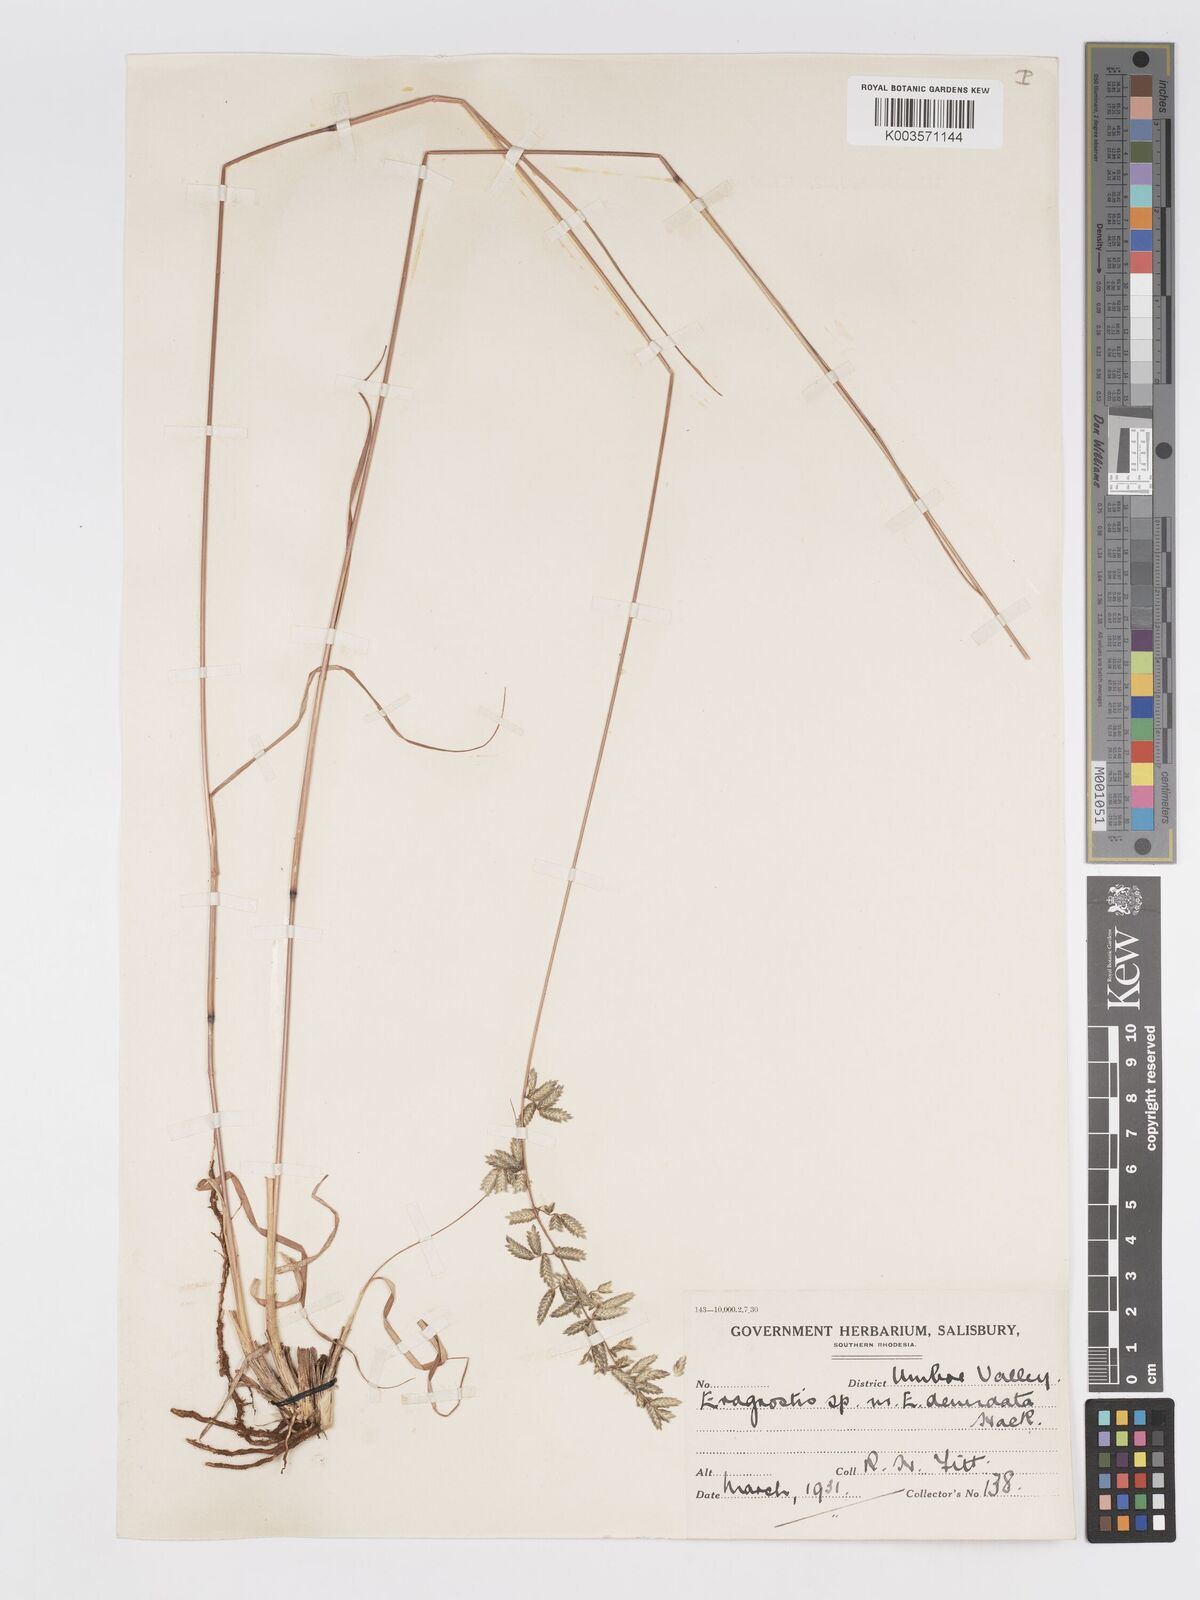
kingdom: Plantae
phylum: Tracheophyta
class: Liliopsida
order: Poales
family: Poaceae
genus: Eragrostis
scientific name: Eragrostis nindensis
